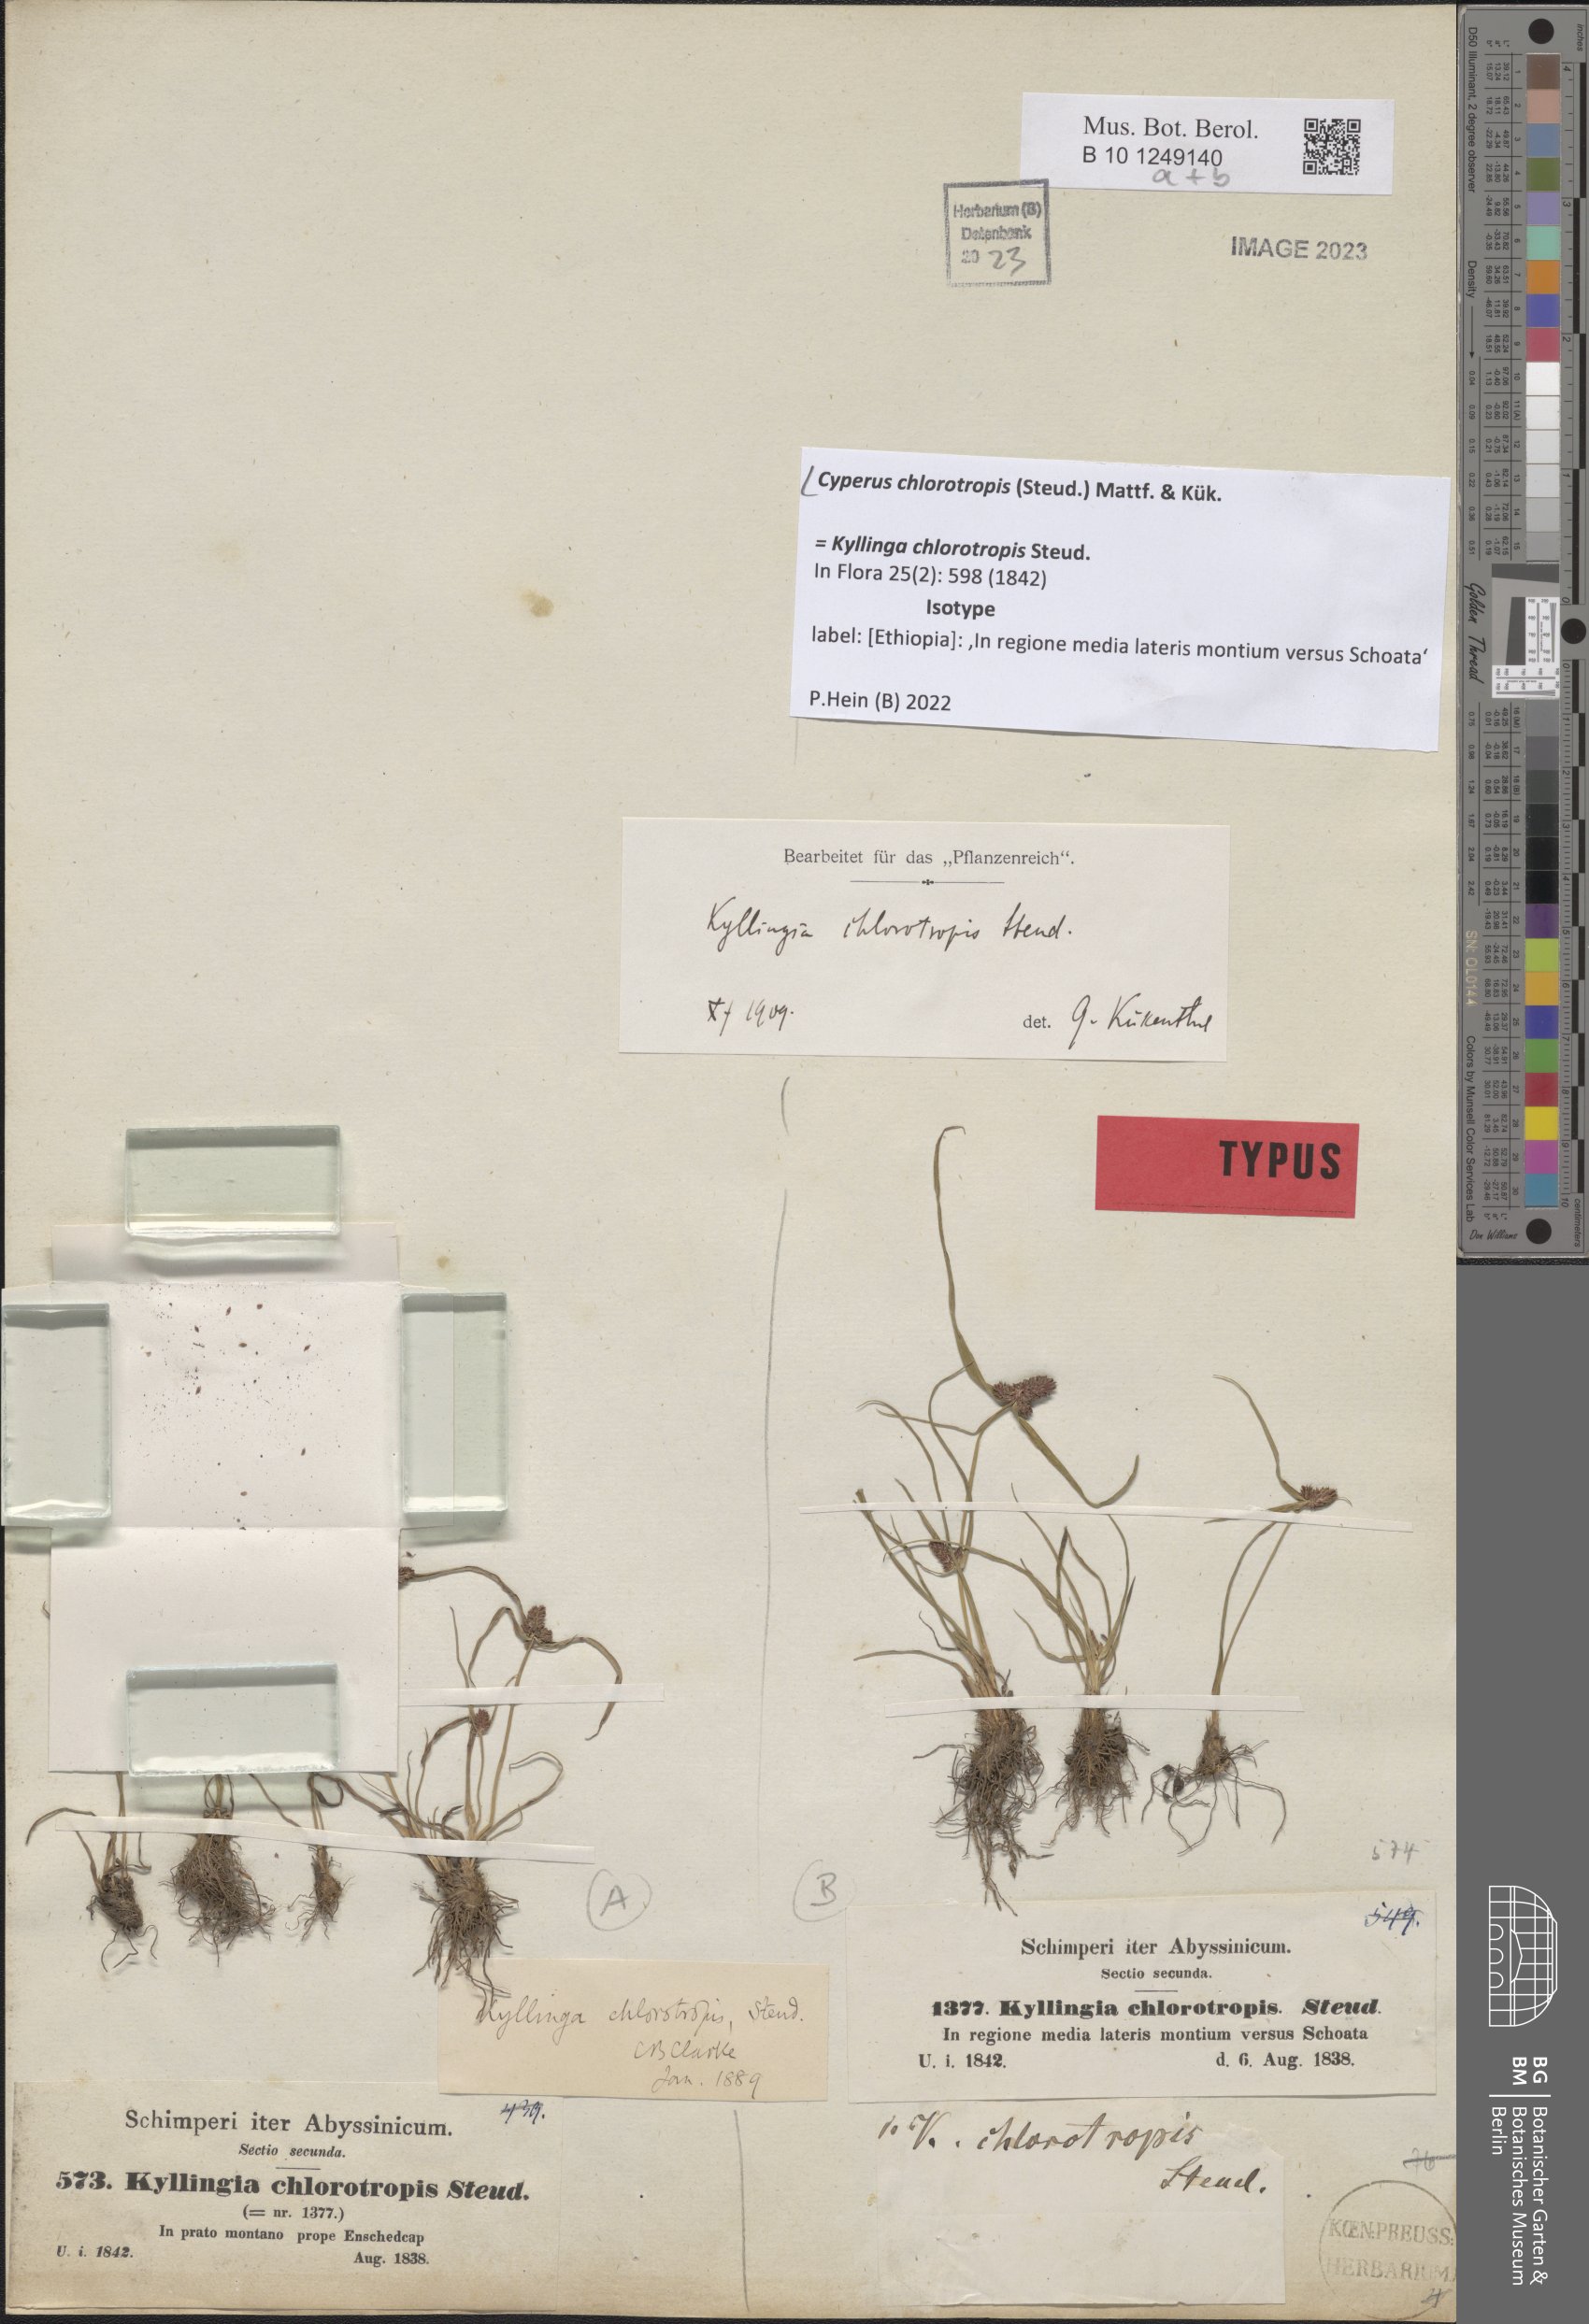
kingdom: Plantae
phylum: Tracheophyta
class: Liliopsida
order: Poales
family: Cyperaceae
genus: Cyperus
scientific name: Cyperus chlorotropis
